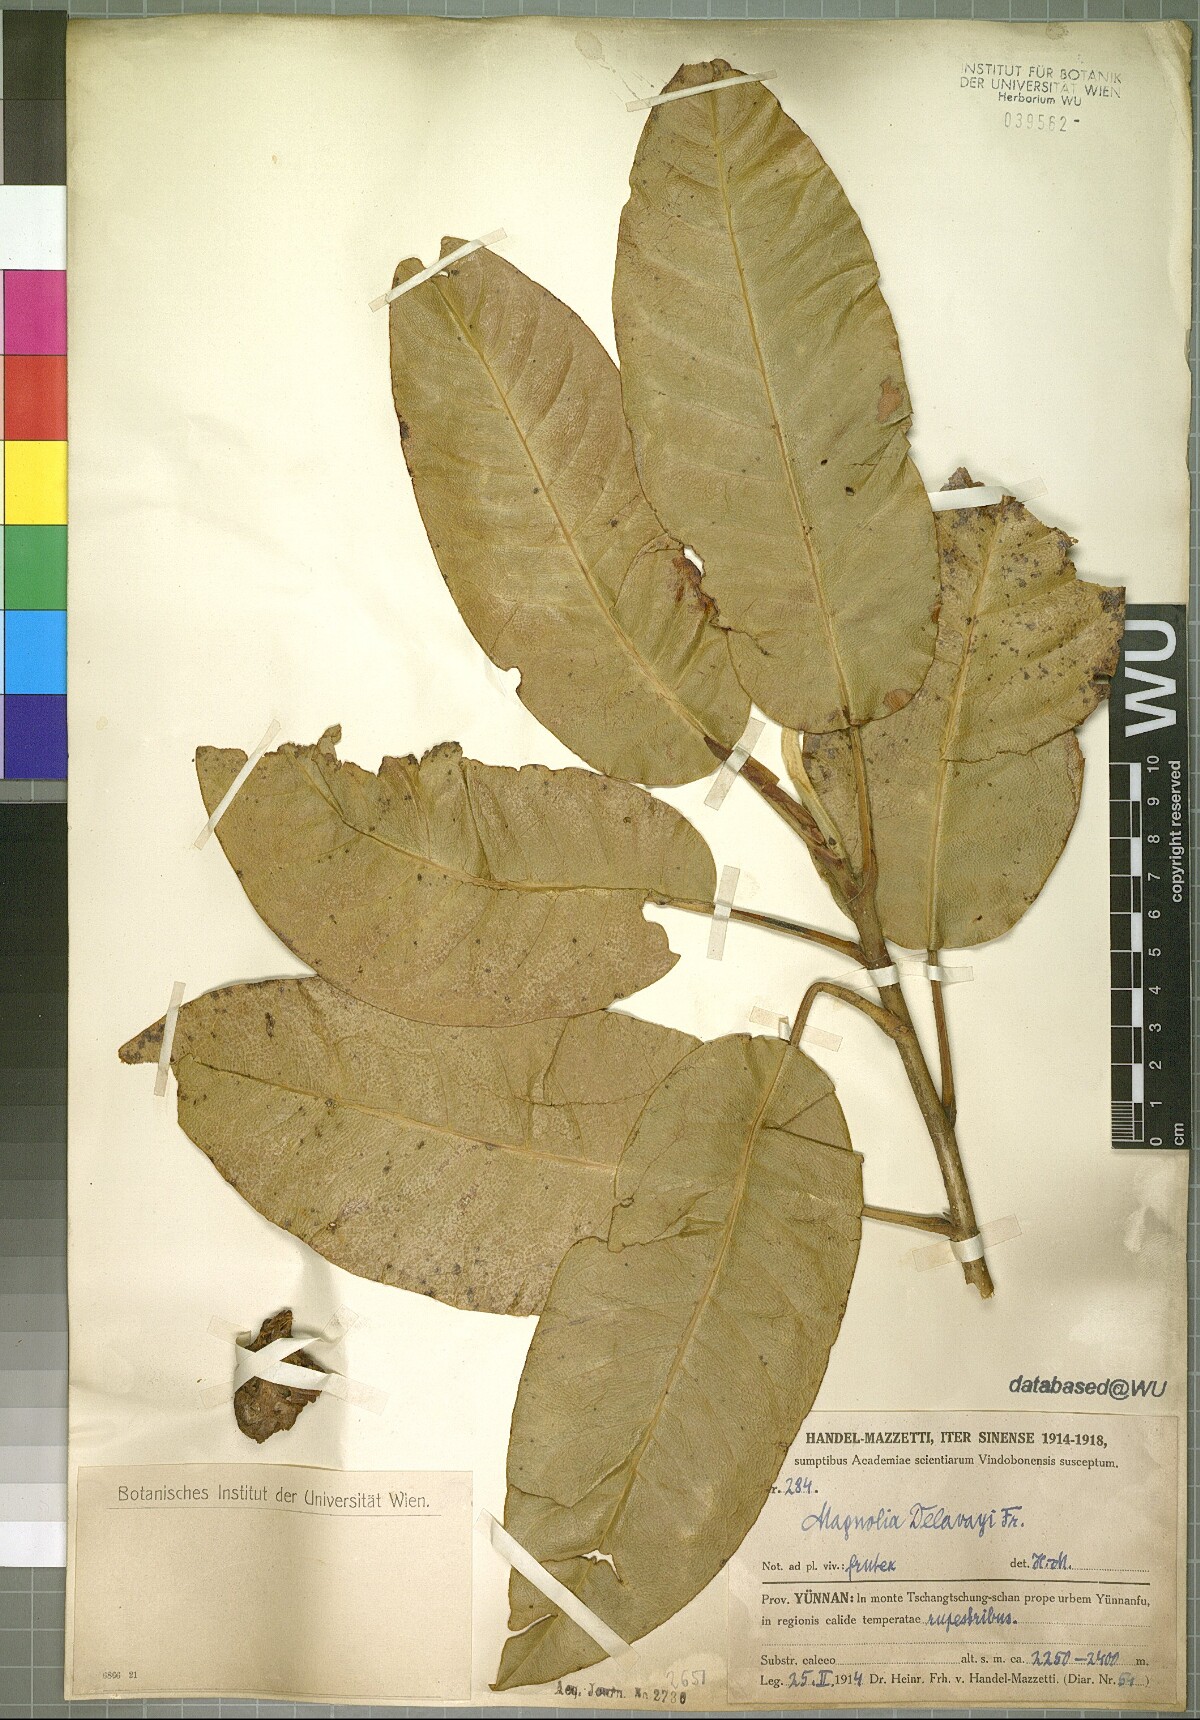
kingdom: Plantae
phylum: Tracheophyta
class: Magnoliopsida
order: Magnoliales
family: Magnoliaceae
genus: Magnolia
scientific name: Magnolia delavayi
